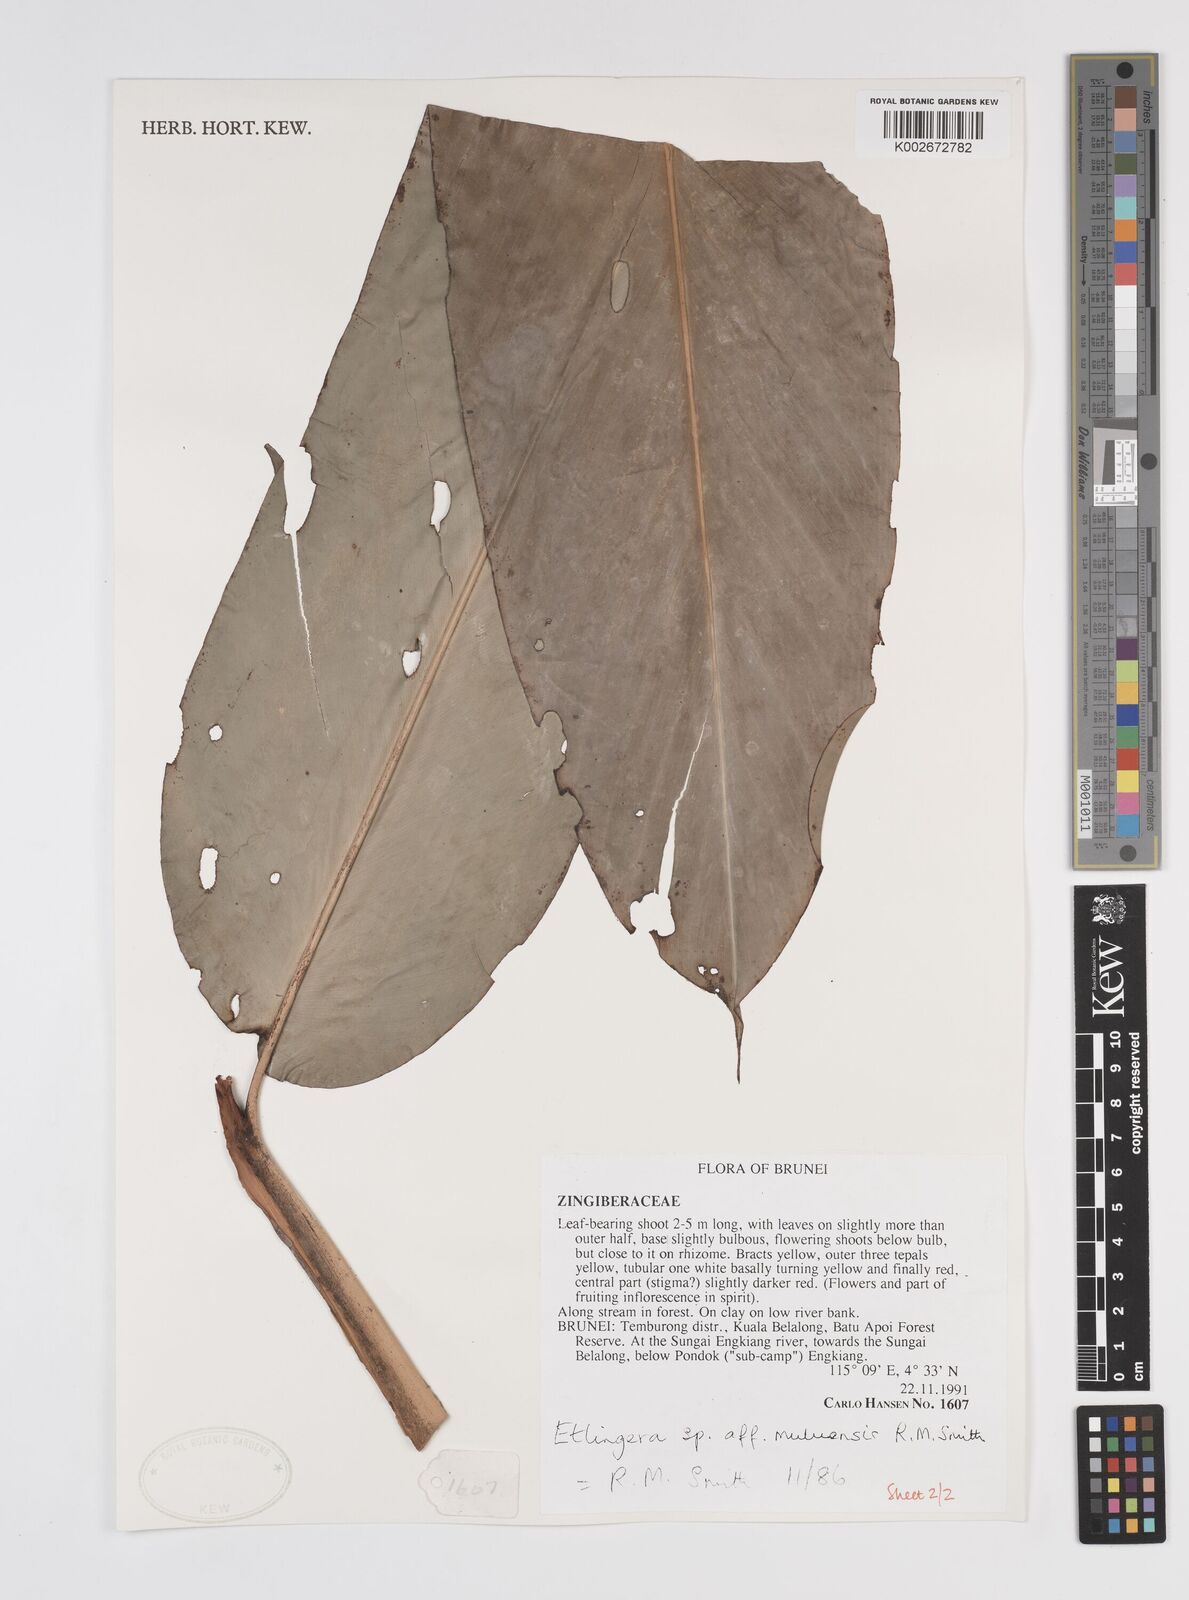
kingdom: Plantae
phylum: Tracheophyta
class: Liliopsida
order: Zingiberales
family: Zingiberaceae
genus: Etlingera
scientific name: Etlingera pubescens
